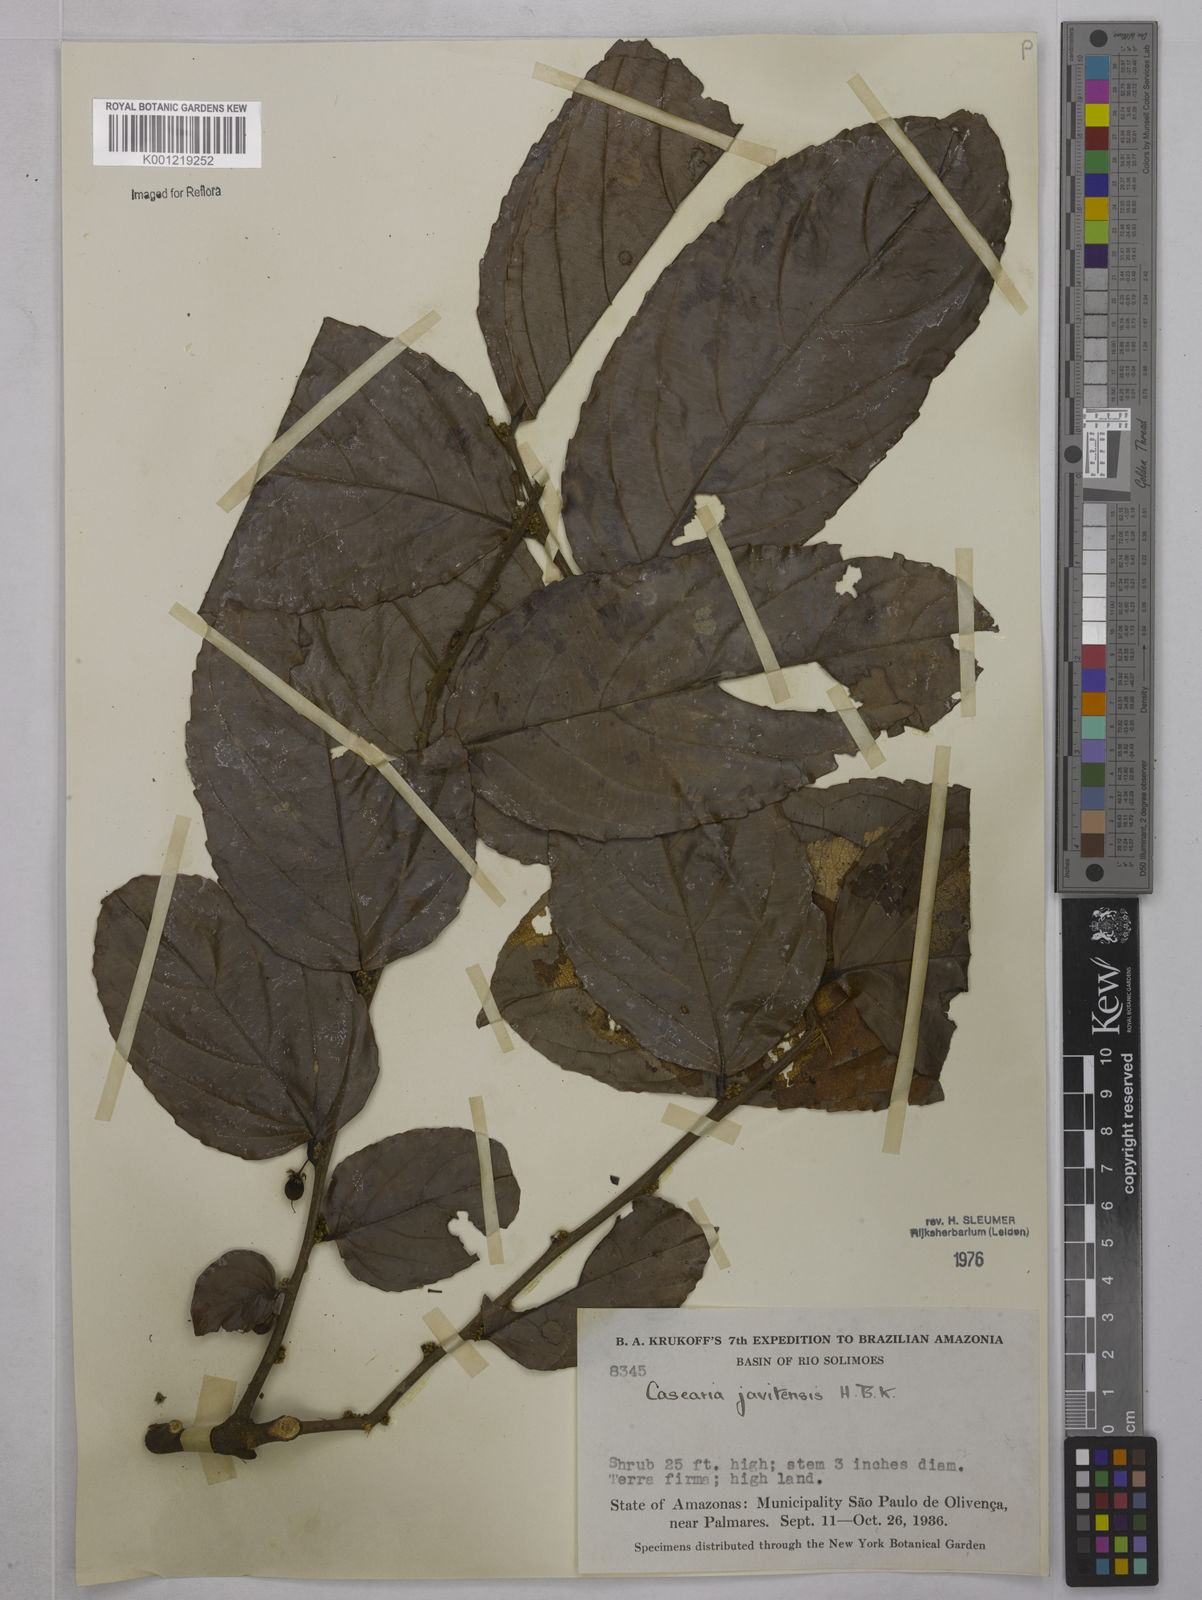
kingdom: Plantae
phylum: Tracheophyta
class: Magnoliopsida
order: Malpighiales
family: Salicaceae
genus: Piparea
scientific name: Piparea multiflora
